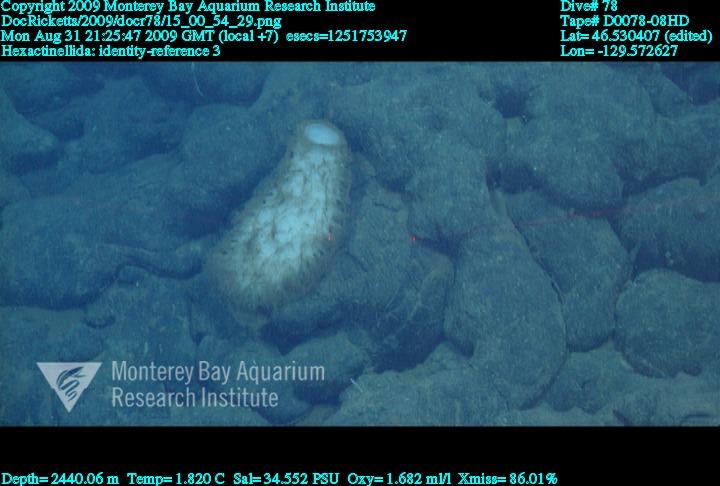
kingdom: Animalia
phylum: Porifera
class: Hexactinellida
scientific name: Hexactinellida
